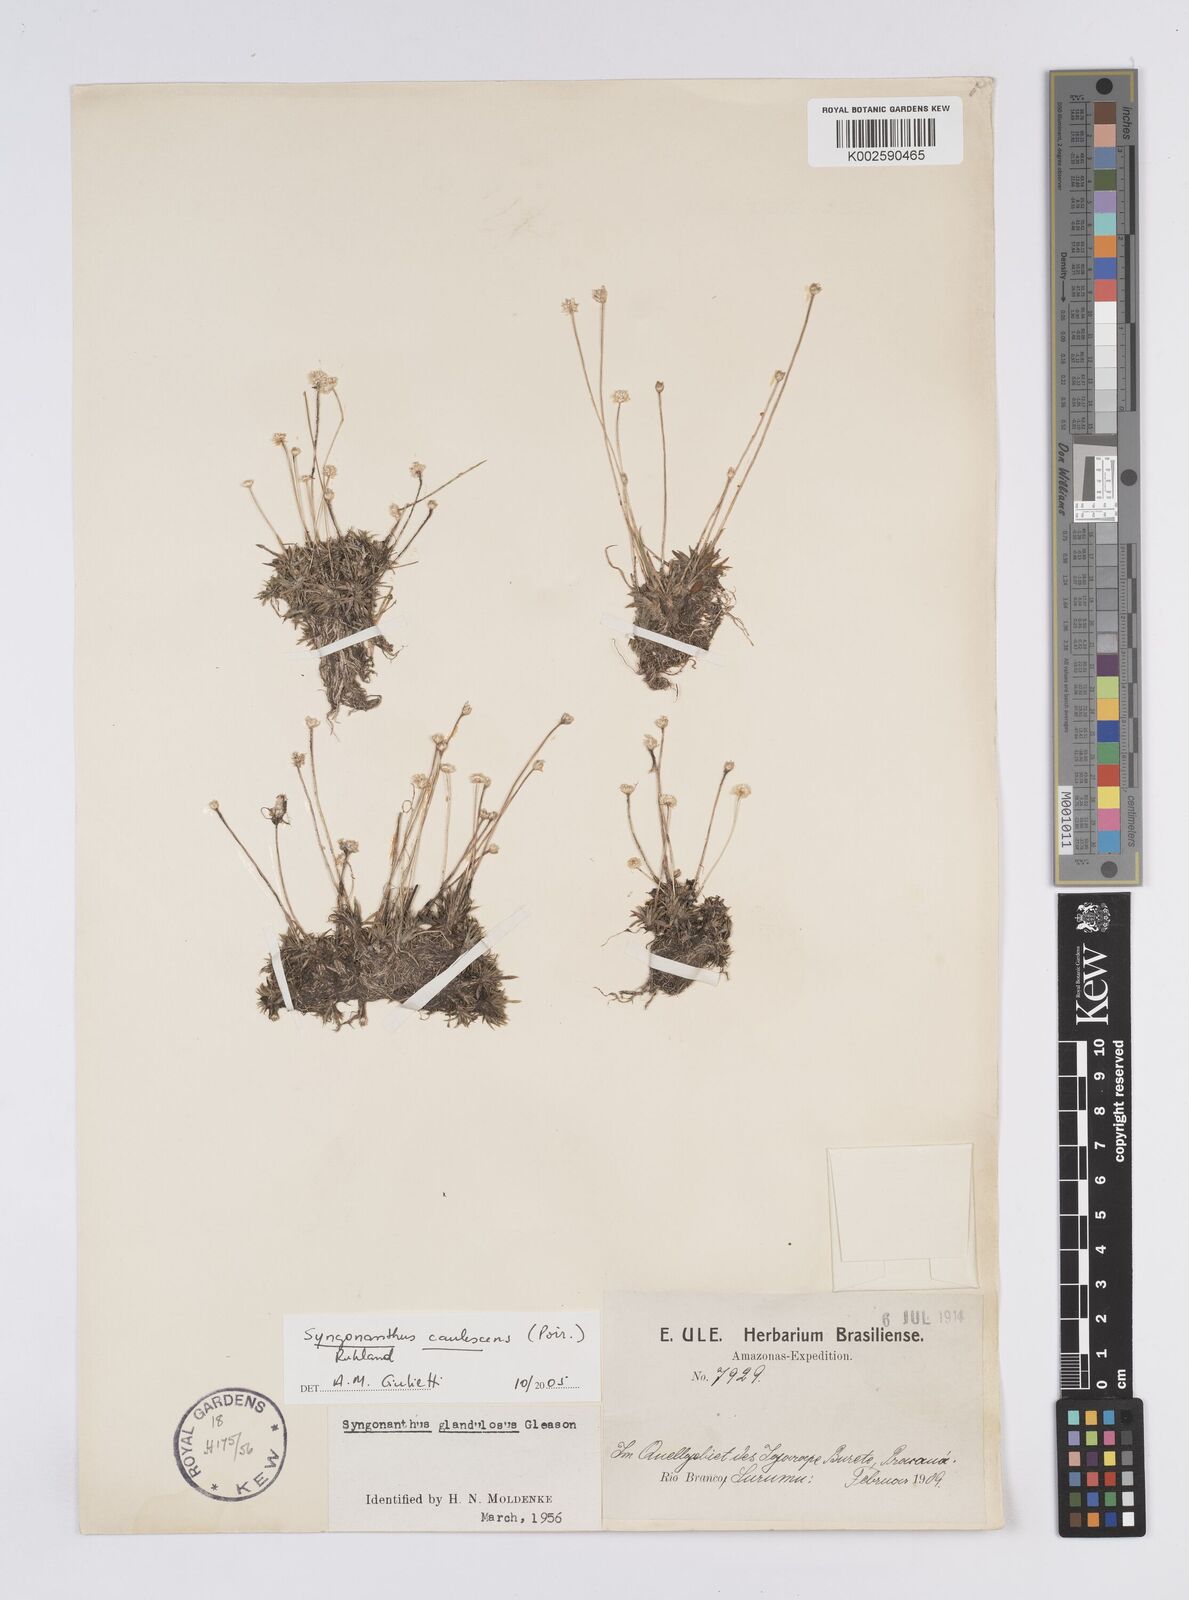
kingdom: Plantae
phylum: Tracheophyta
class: Liliopsida
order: Poales
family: Eriocaulaceae
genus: Syngonanthus
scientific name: Syngonanthus caulescens
